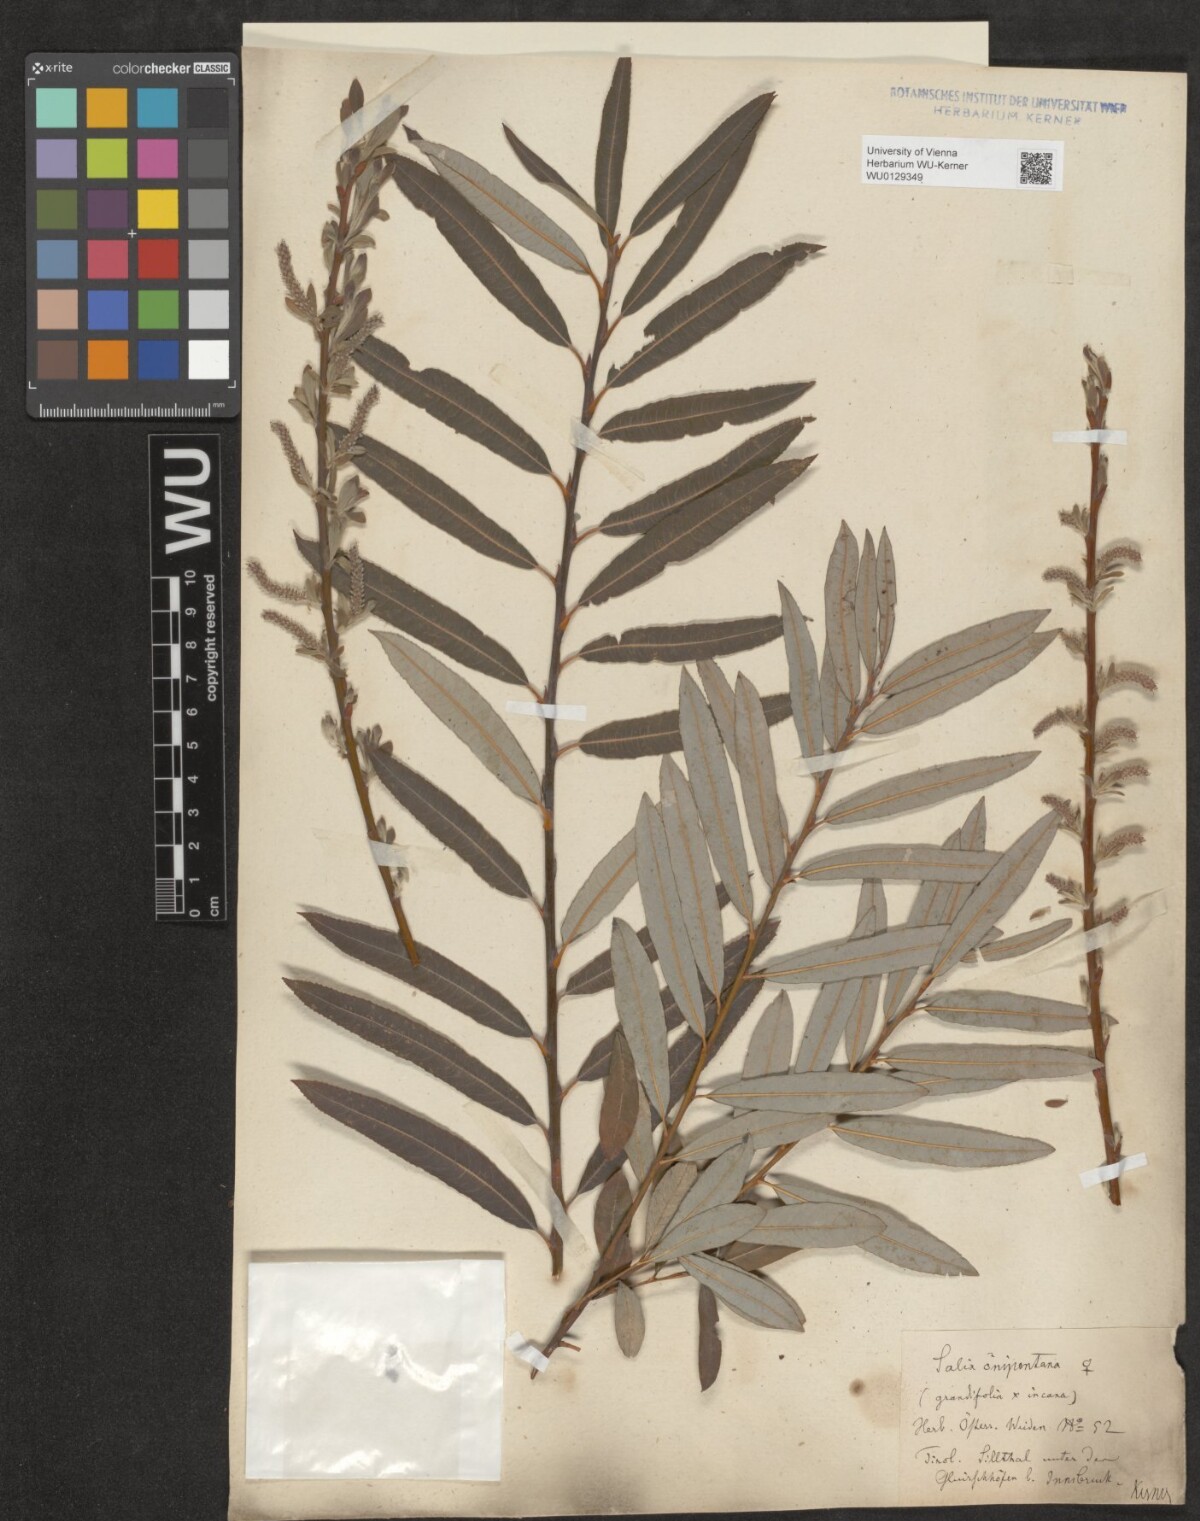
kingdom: Plantae
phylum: Tracheophyta
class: Magnoliopsida
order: Malpighiales
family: Salicaceae
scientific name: Salicaceae
